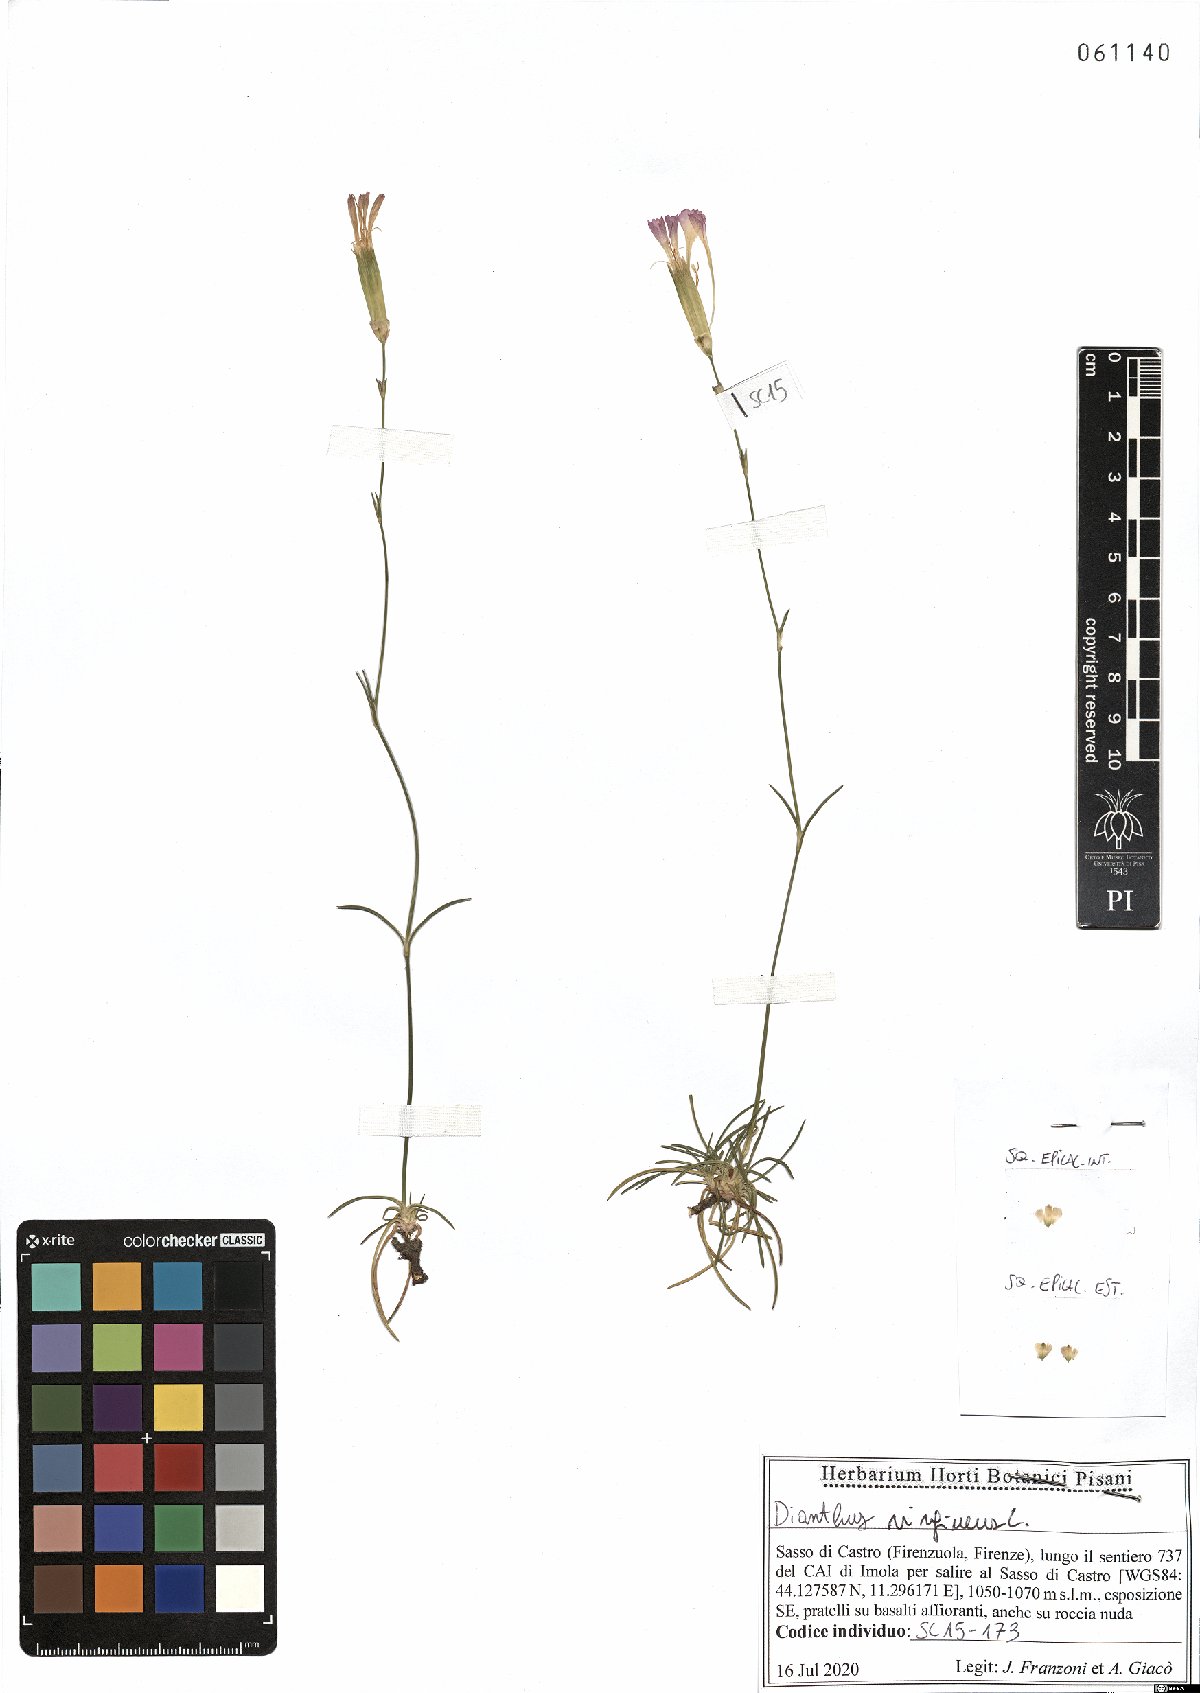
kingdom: Plantae
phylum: Tracheophyta
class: Magnoliopsida
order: Caryophyllales
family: Caryophyllaceae
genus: Dianthus
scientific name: Dianthus virgineus
